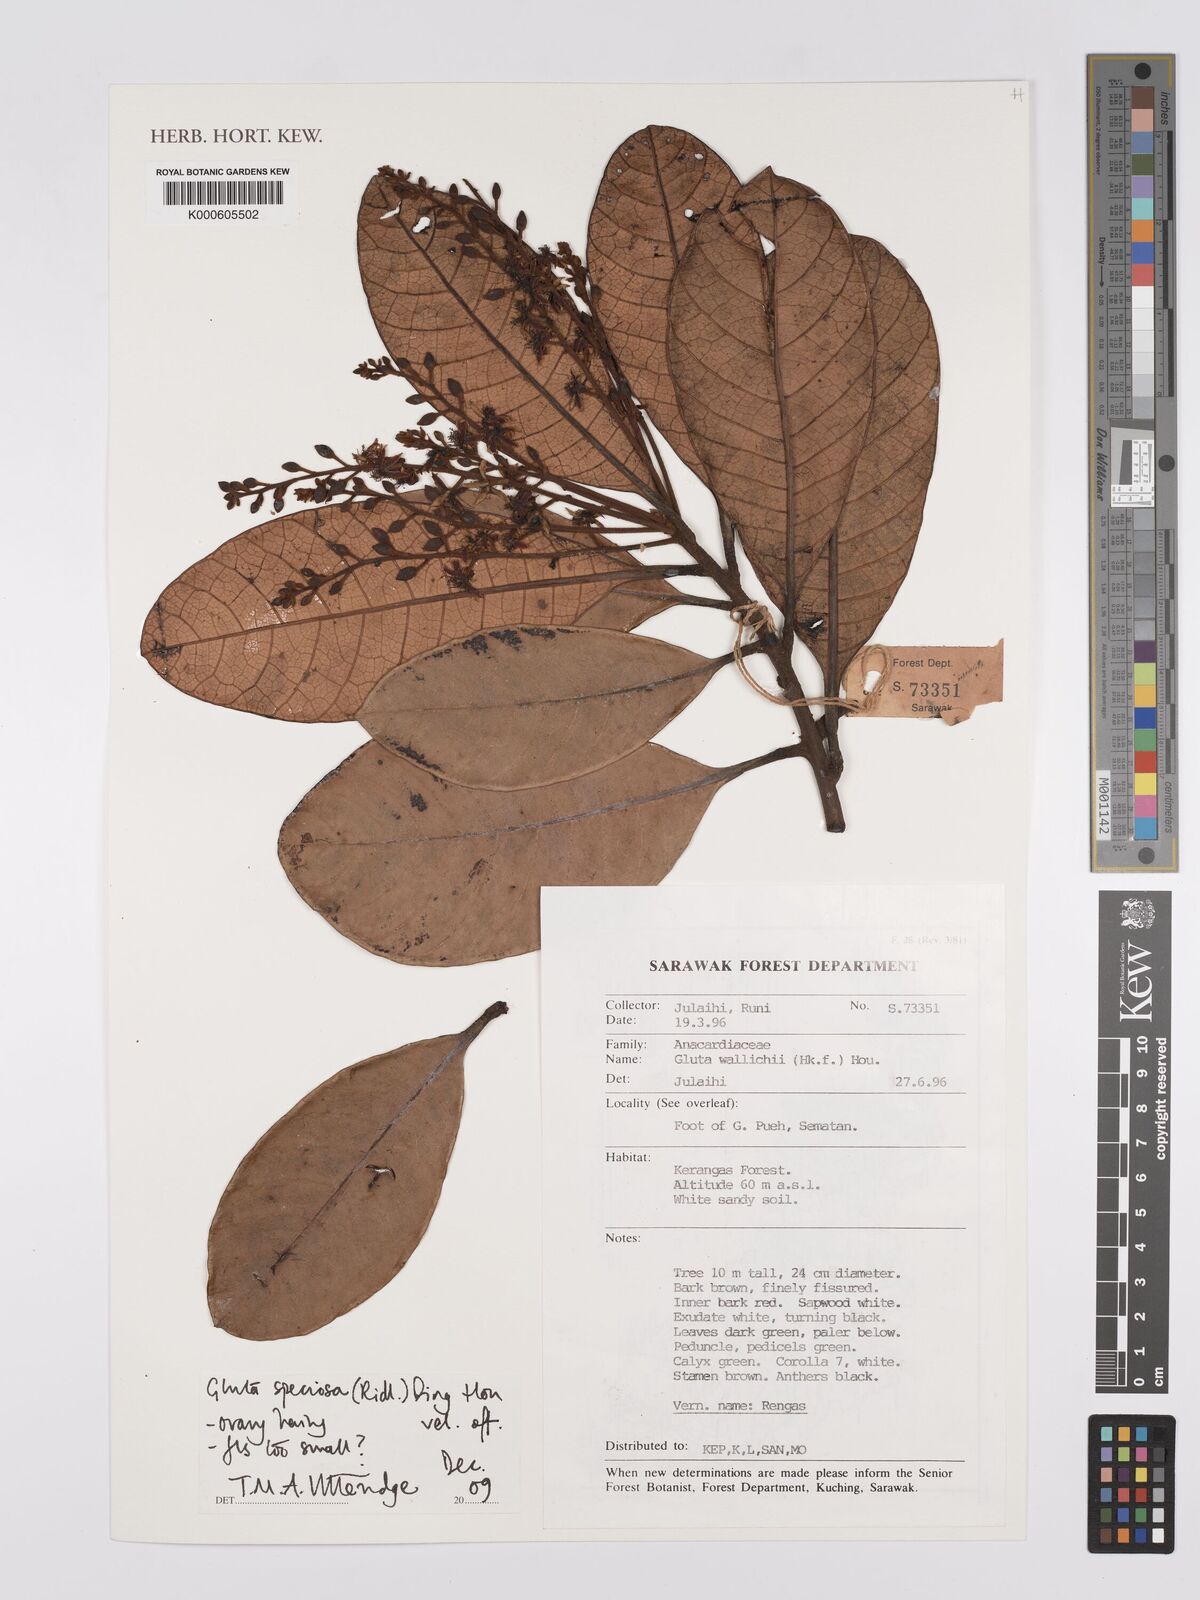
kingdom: Plantae
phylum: Tracheophyta
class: Magnoliopsida
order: Sapindales
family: Anacardiaceae
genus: Gluta
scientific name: Gluta speciosa
